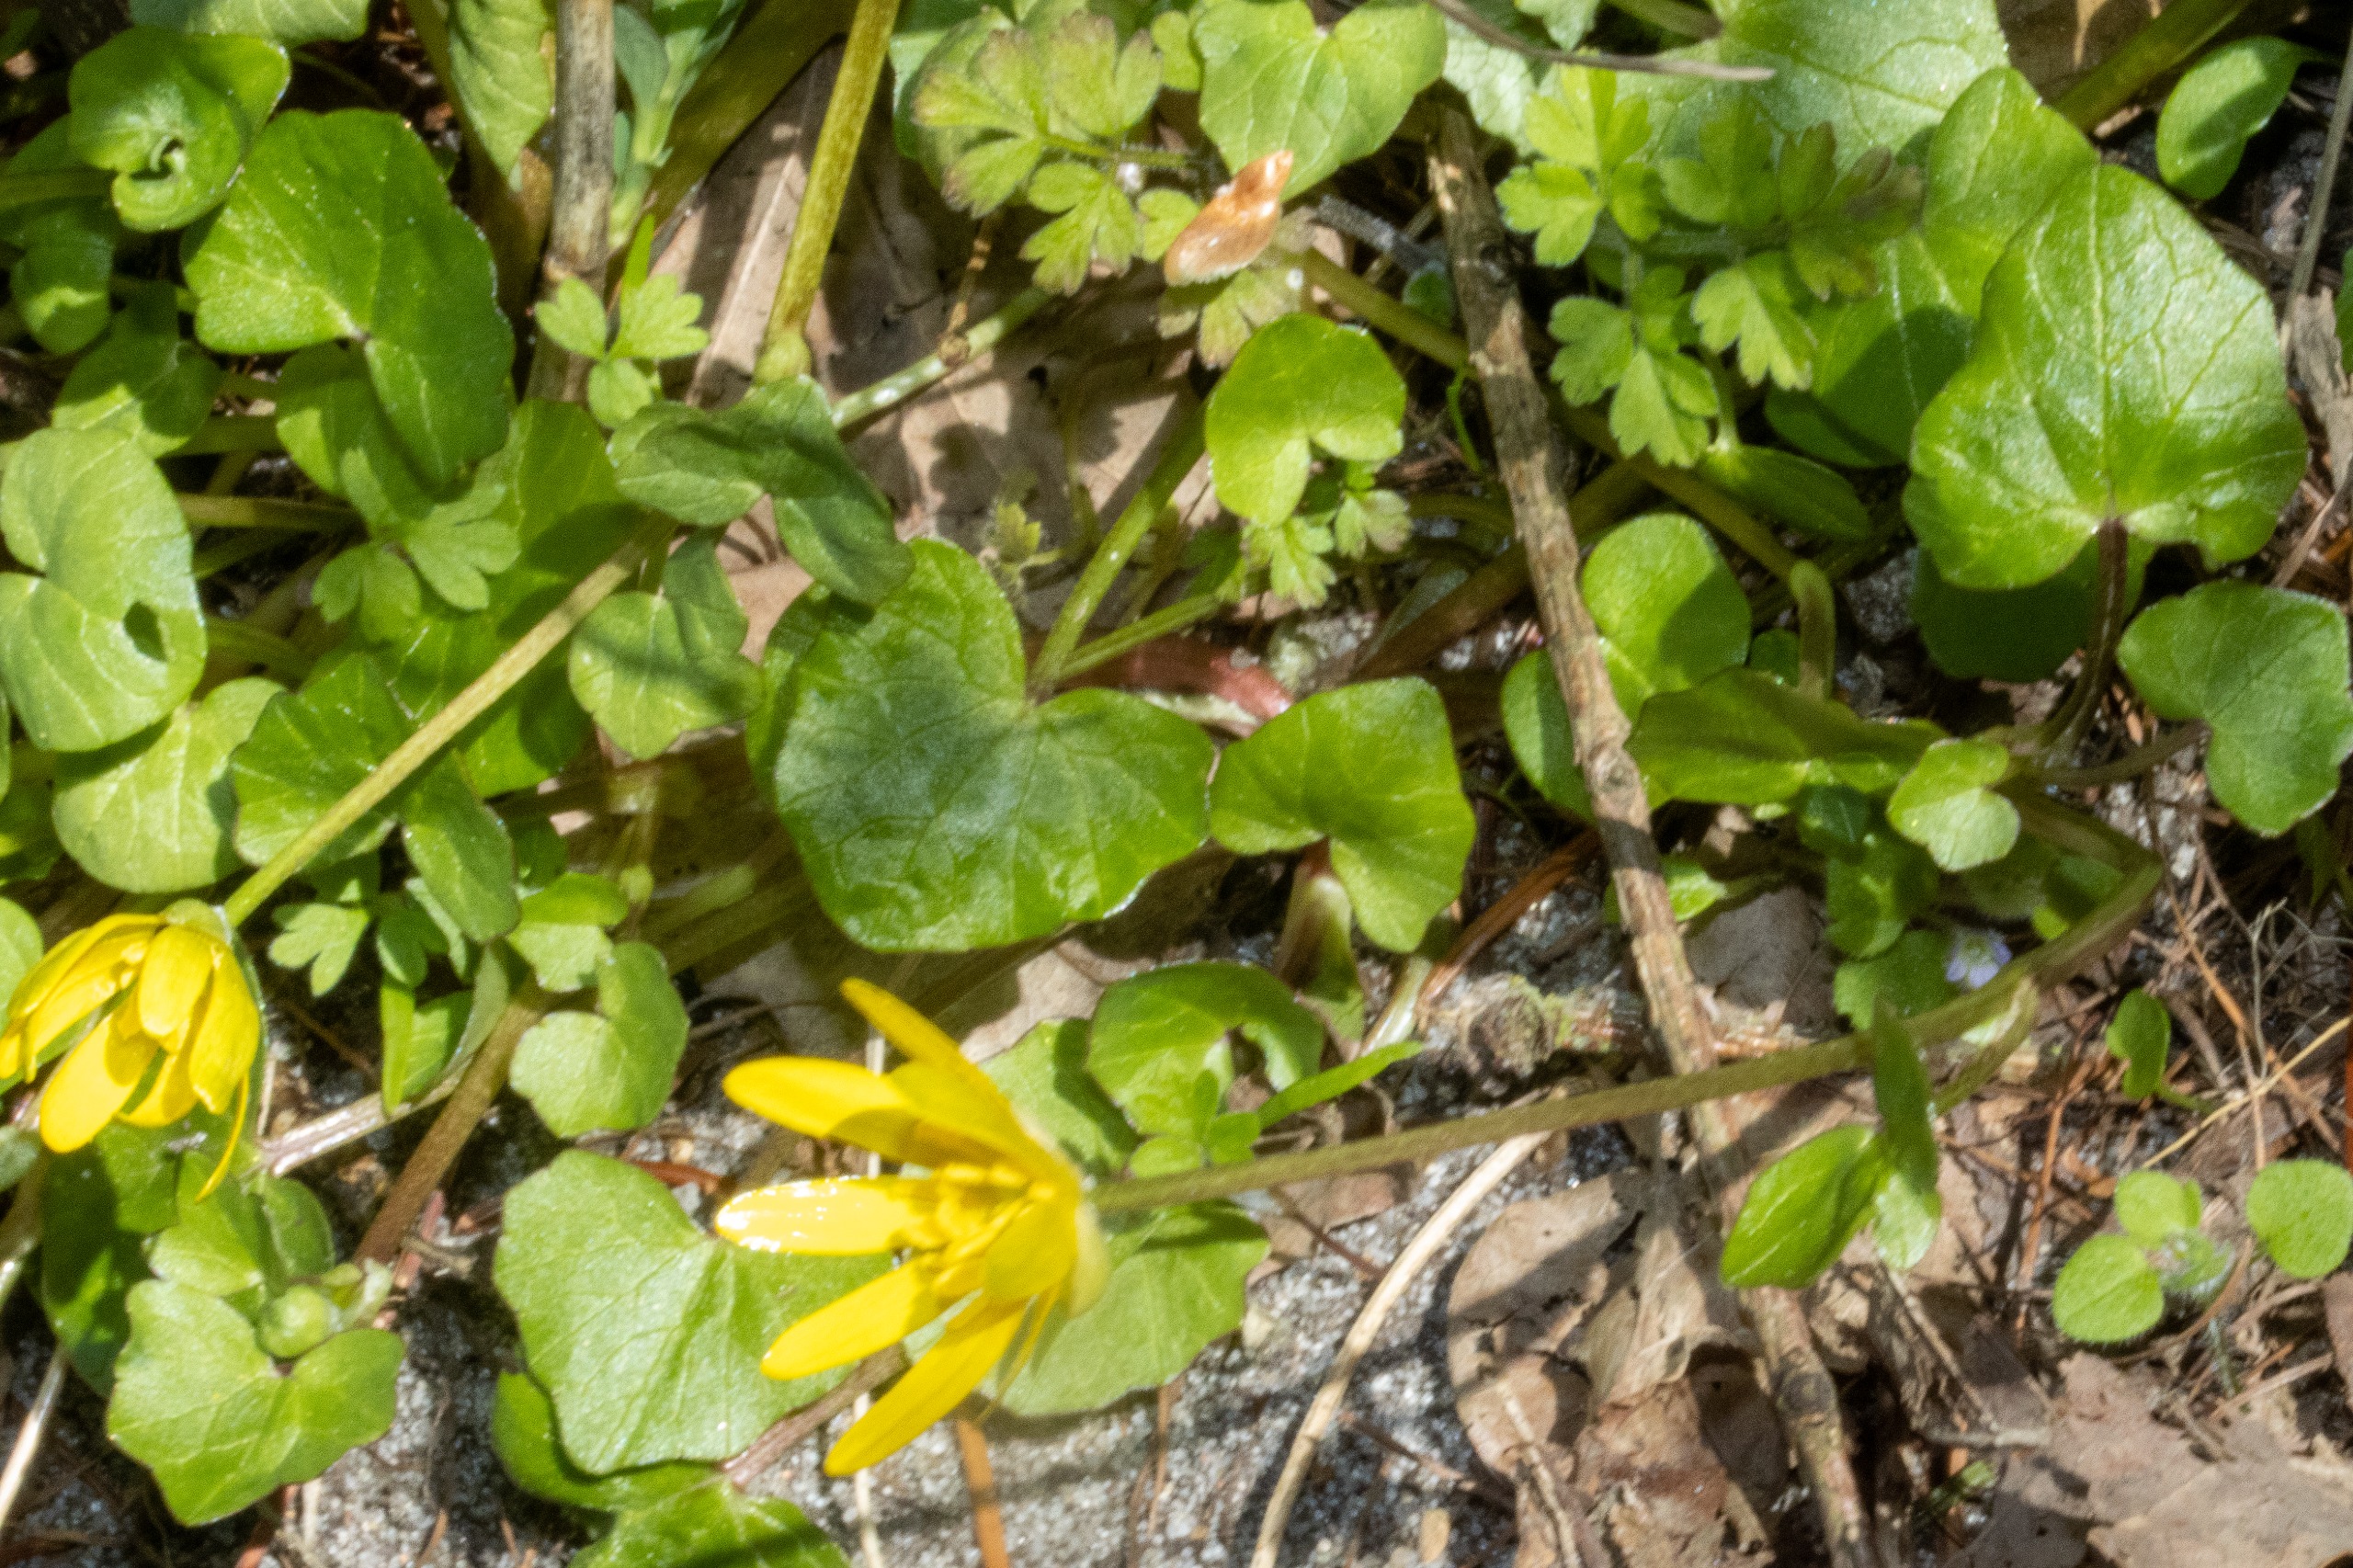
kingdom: Plantae
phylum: Tracheophyta
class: Magnoliopsida
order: Ranunculales
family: Ranunculaceae
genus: Ficaria
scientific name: Ficaria verna
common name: Vorterod
